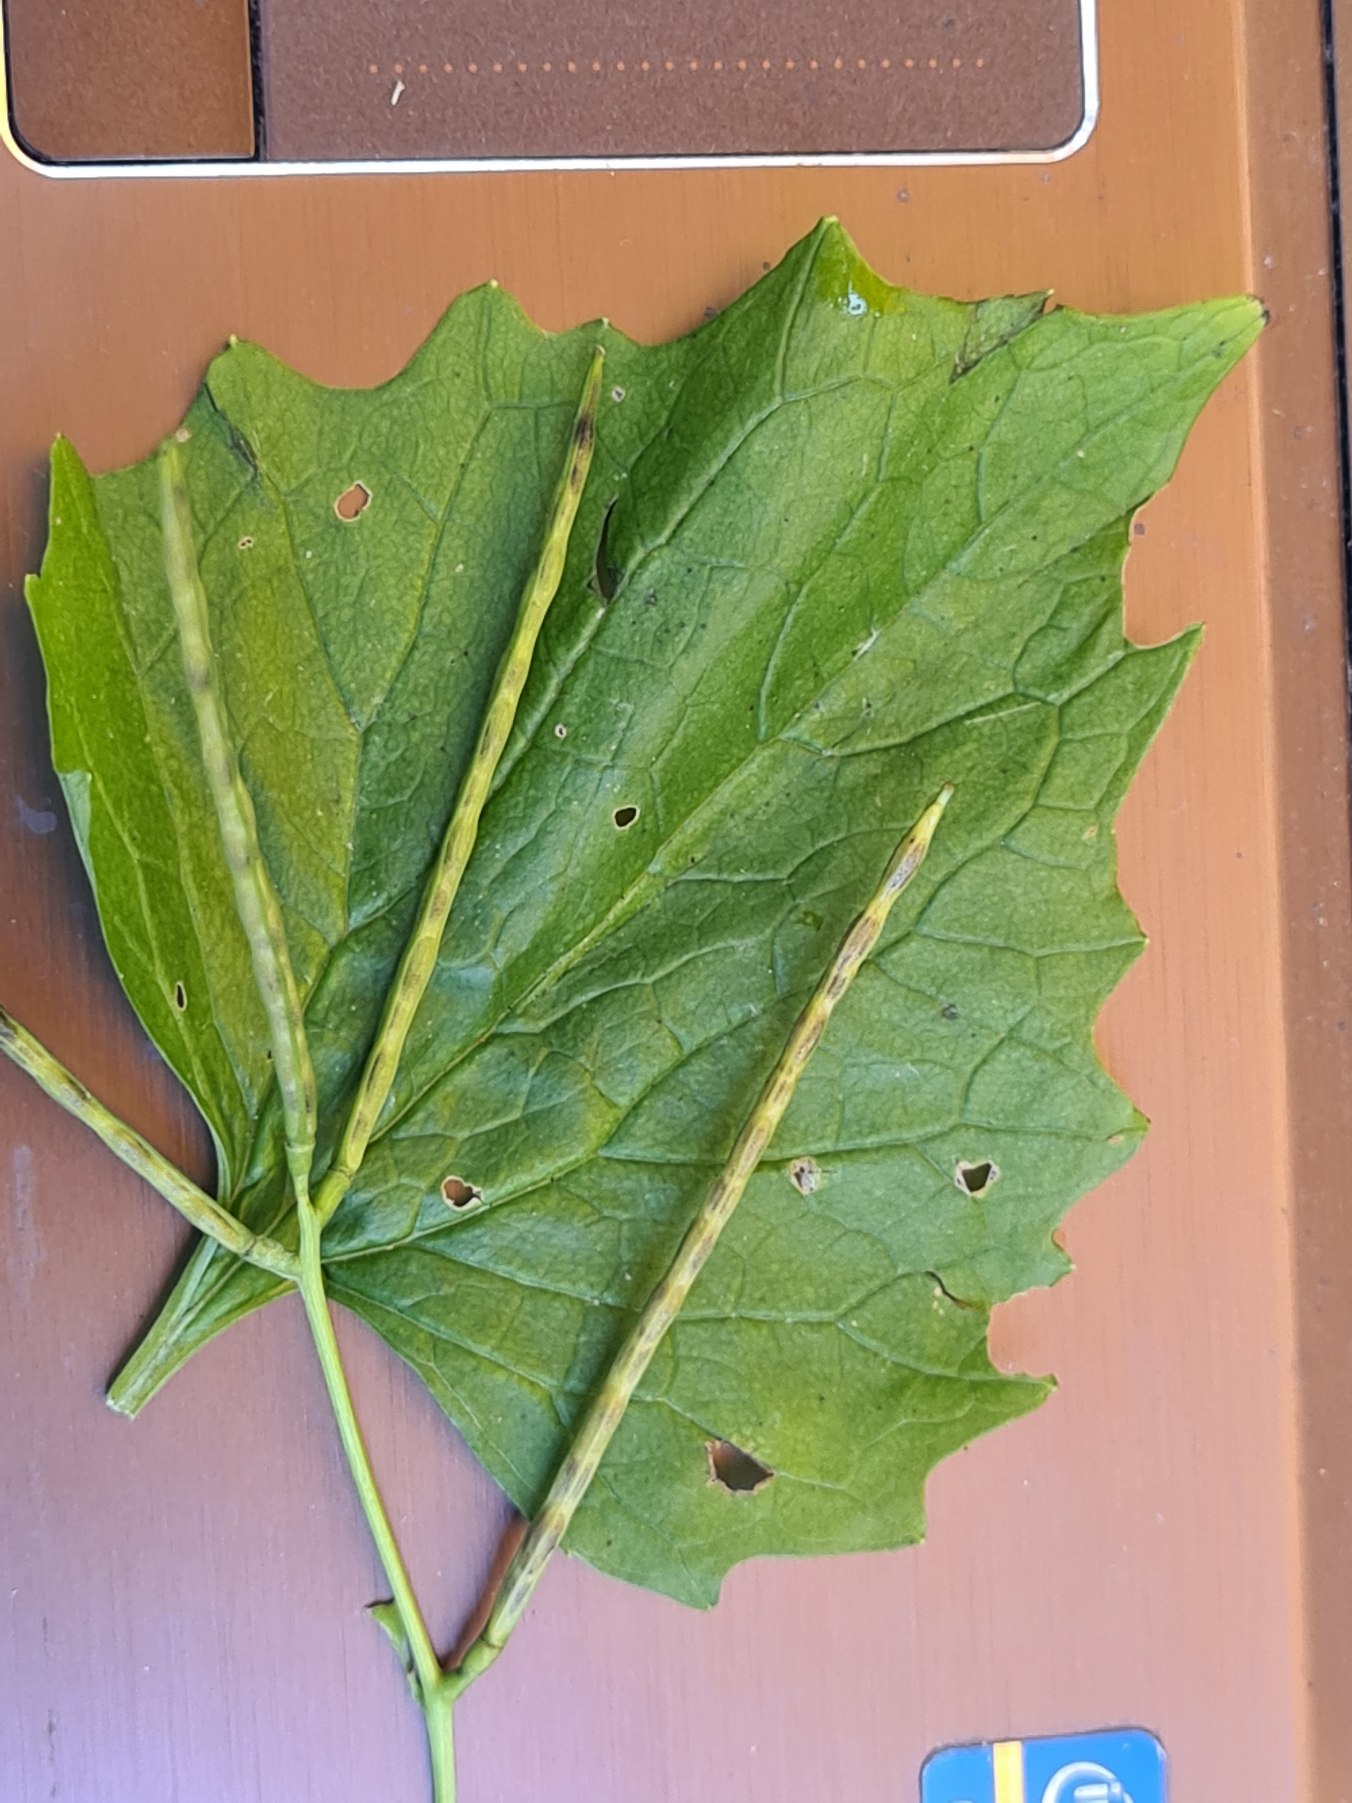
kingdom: Plantae
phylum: Tracheophyta
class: Magnoliopsida
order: Brassicales
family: Brassicaceae
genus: Alliaria
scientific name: Alliaria petiolata
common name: Løgkarse
